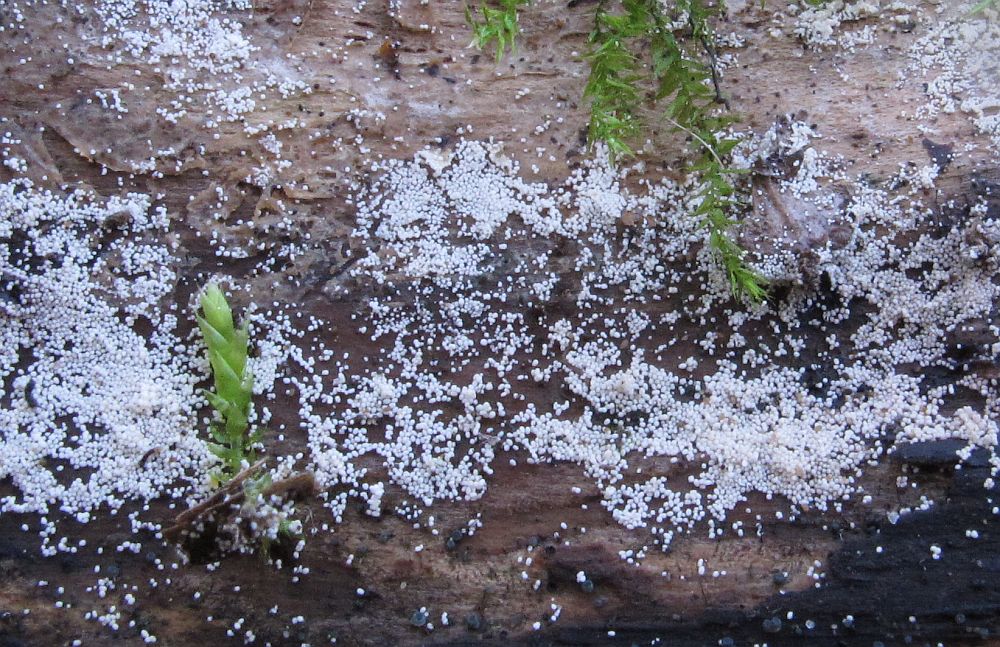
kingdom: Fungi
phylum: Basidiomycota
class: Agaricomycetes
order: Polyporales
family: Meruliaceae
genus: Bulbillomyces
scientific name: Bulbillomyces farinosus
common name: æg-kalkskind
